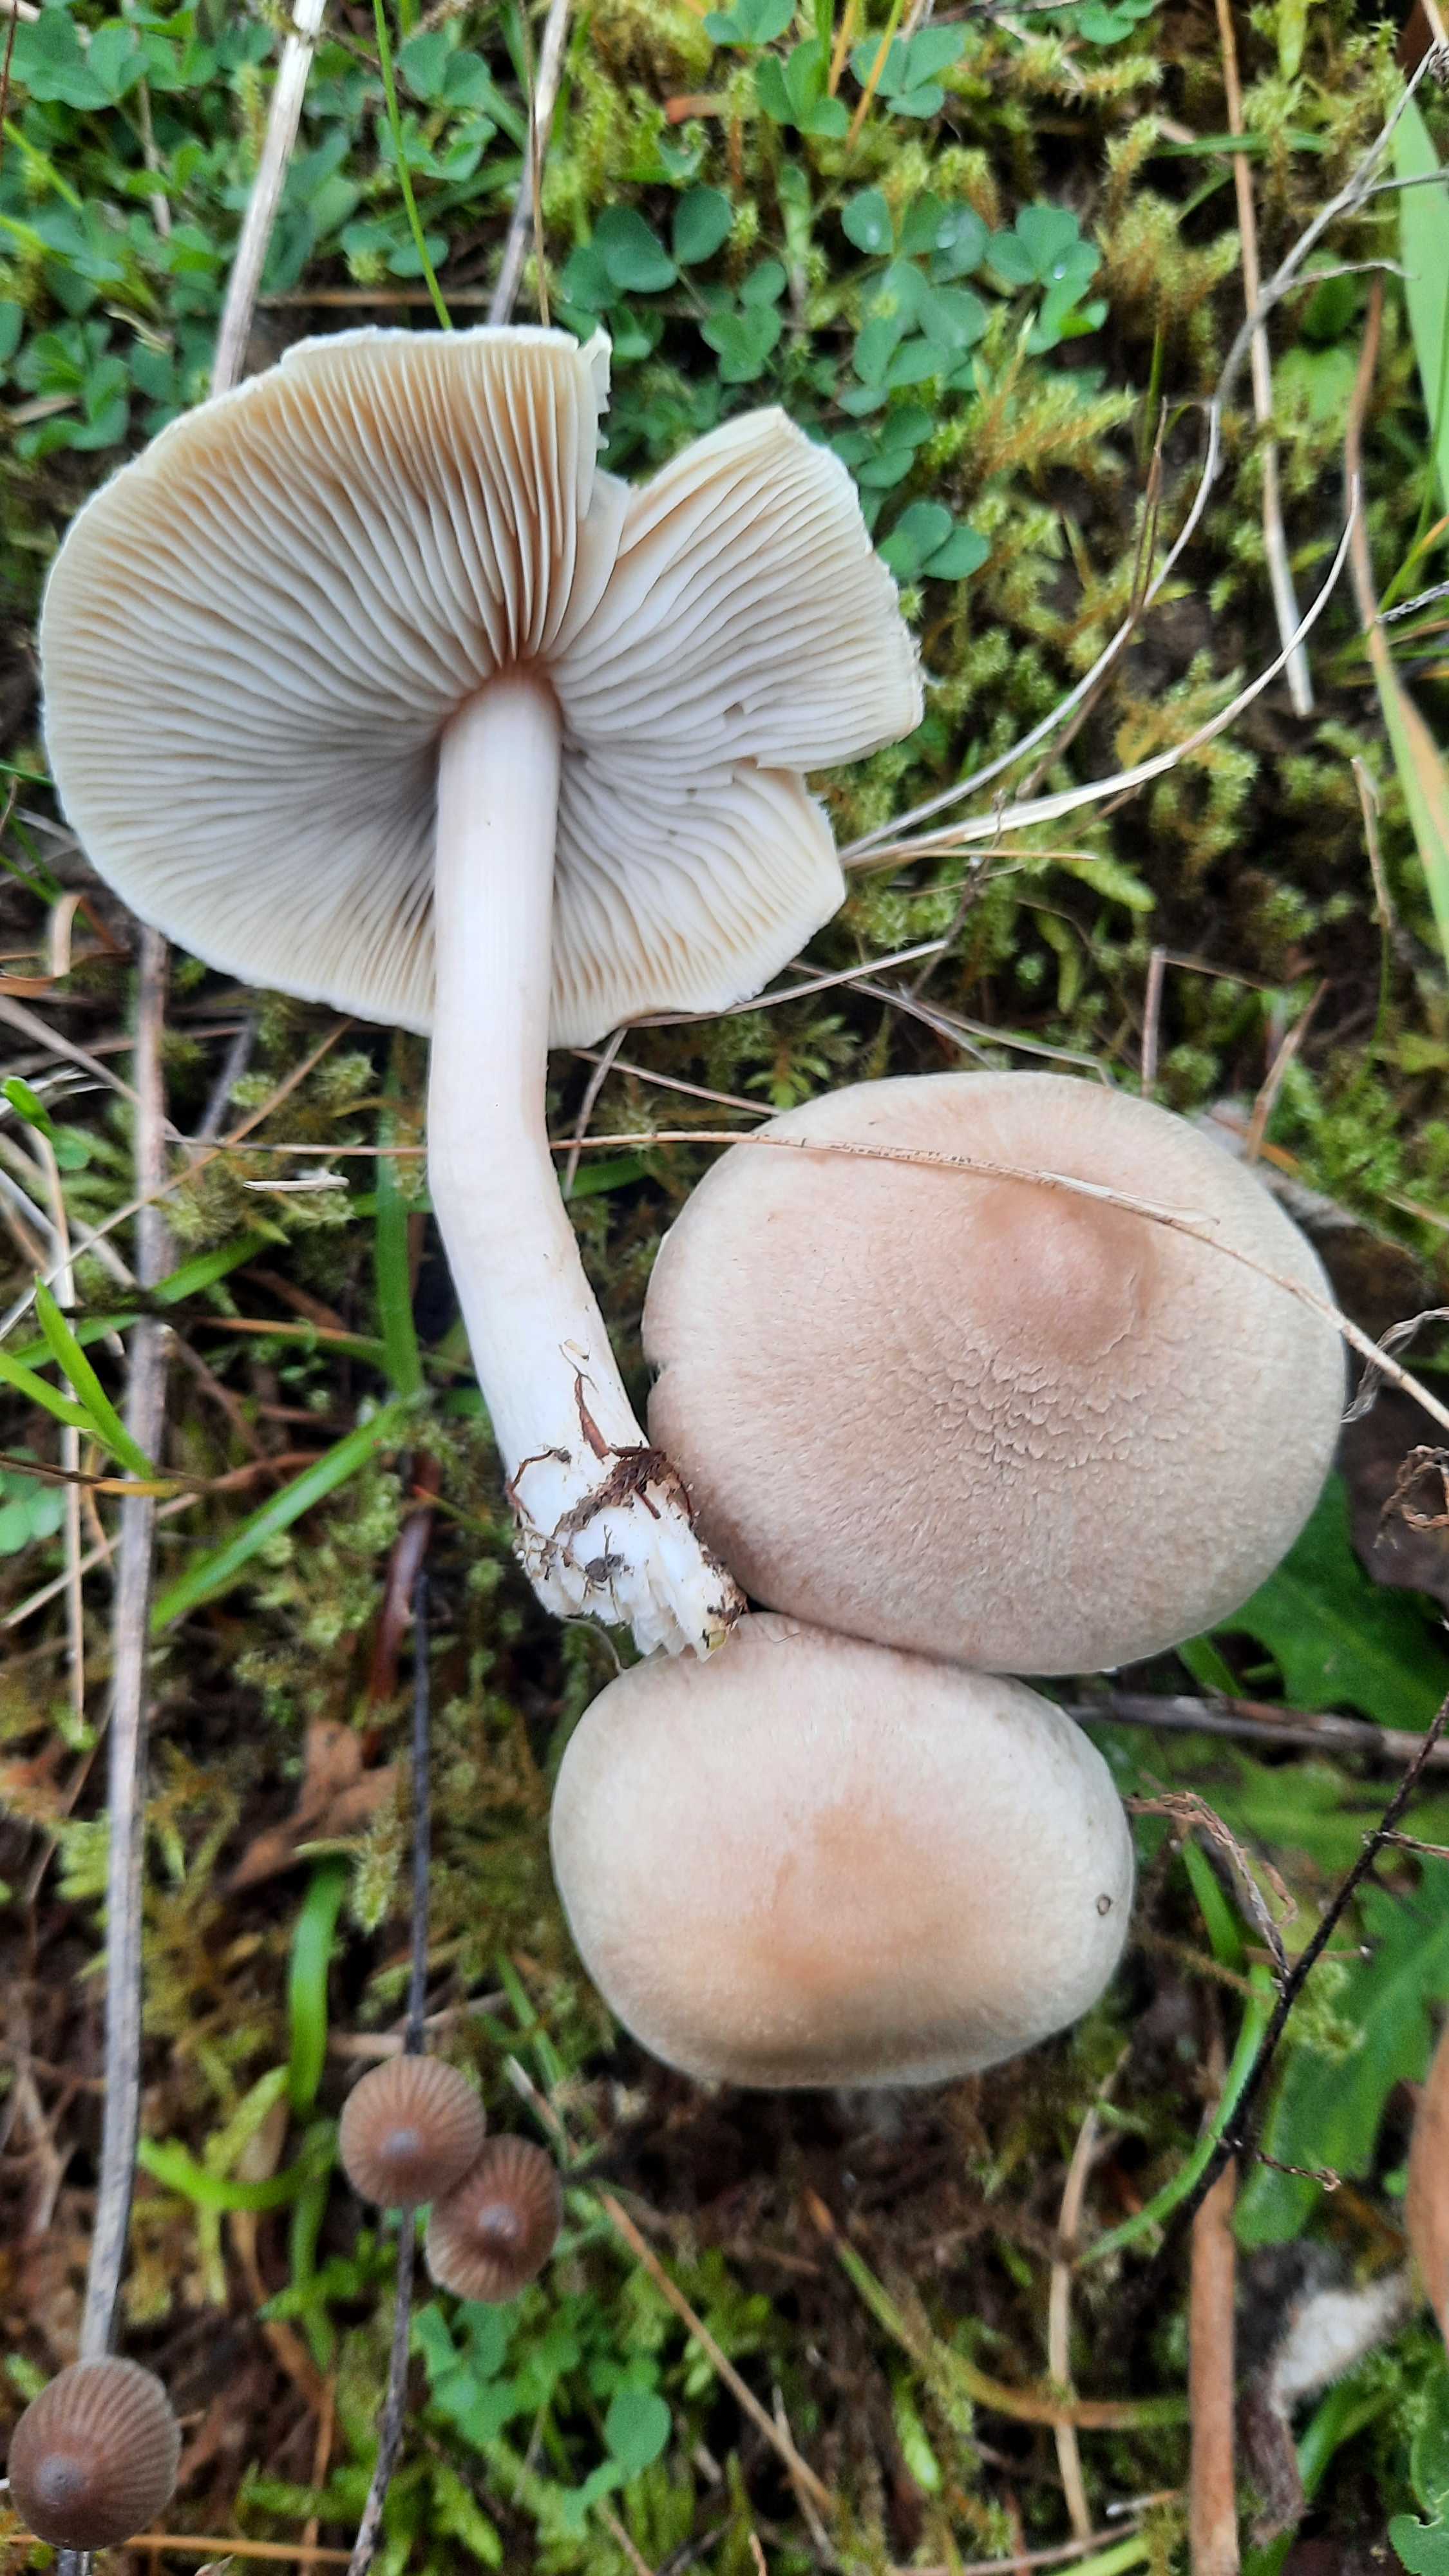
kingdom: Fungi
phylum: Basidiomycota
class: Agaricomycetes
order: Agaricales
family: Inocybaceae
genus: Inocybe
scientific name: Inocybe
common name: trævlhat
